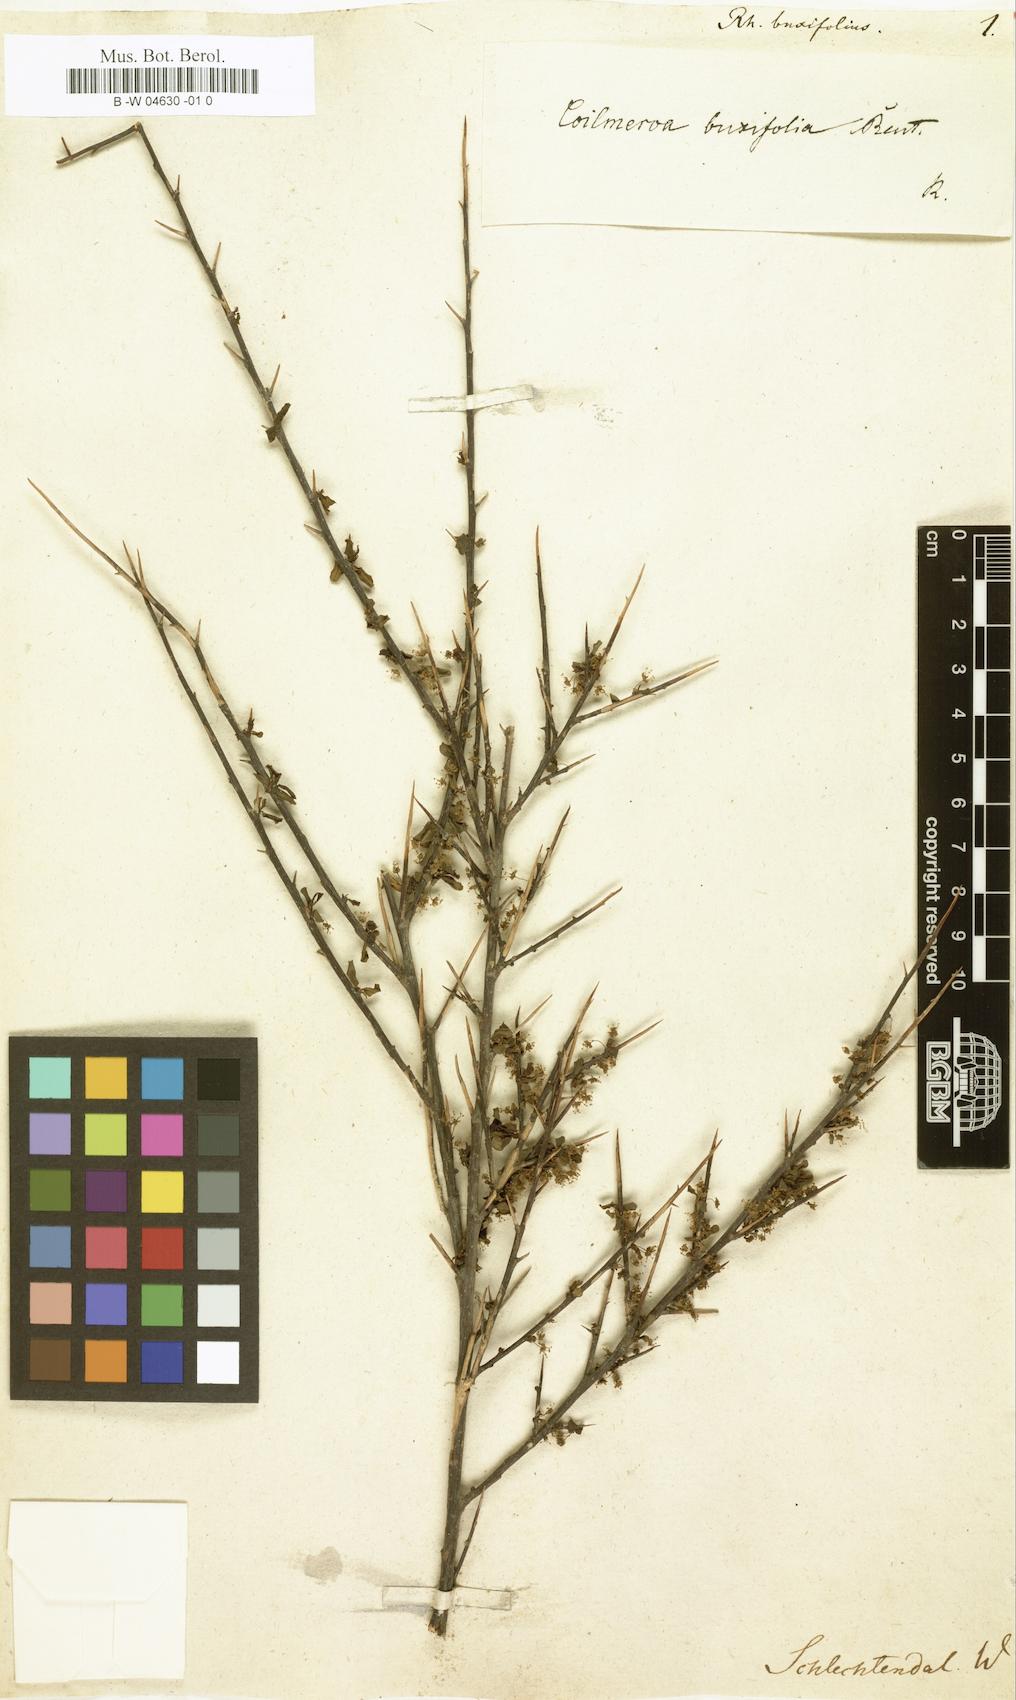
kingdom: Plantae
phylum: Tracheophyta
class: Magnoliopsida
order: Rosales
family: Rhamnaceae
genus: Rhamnus
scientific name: Rhamnus oleoides
